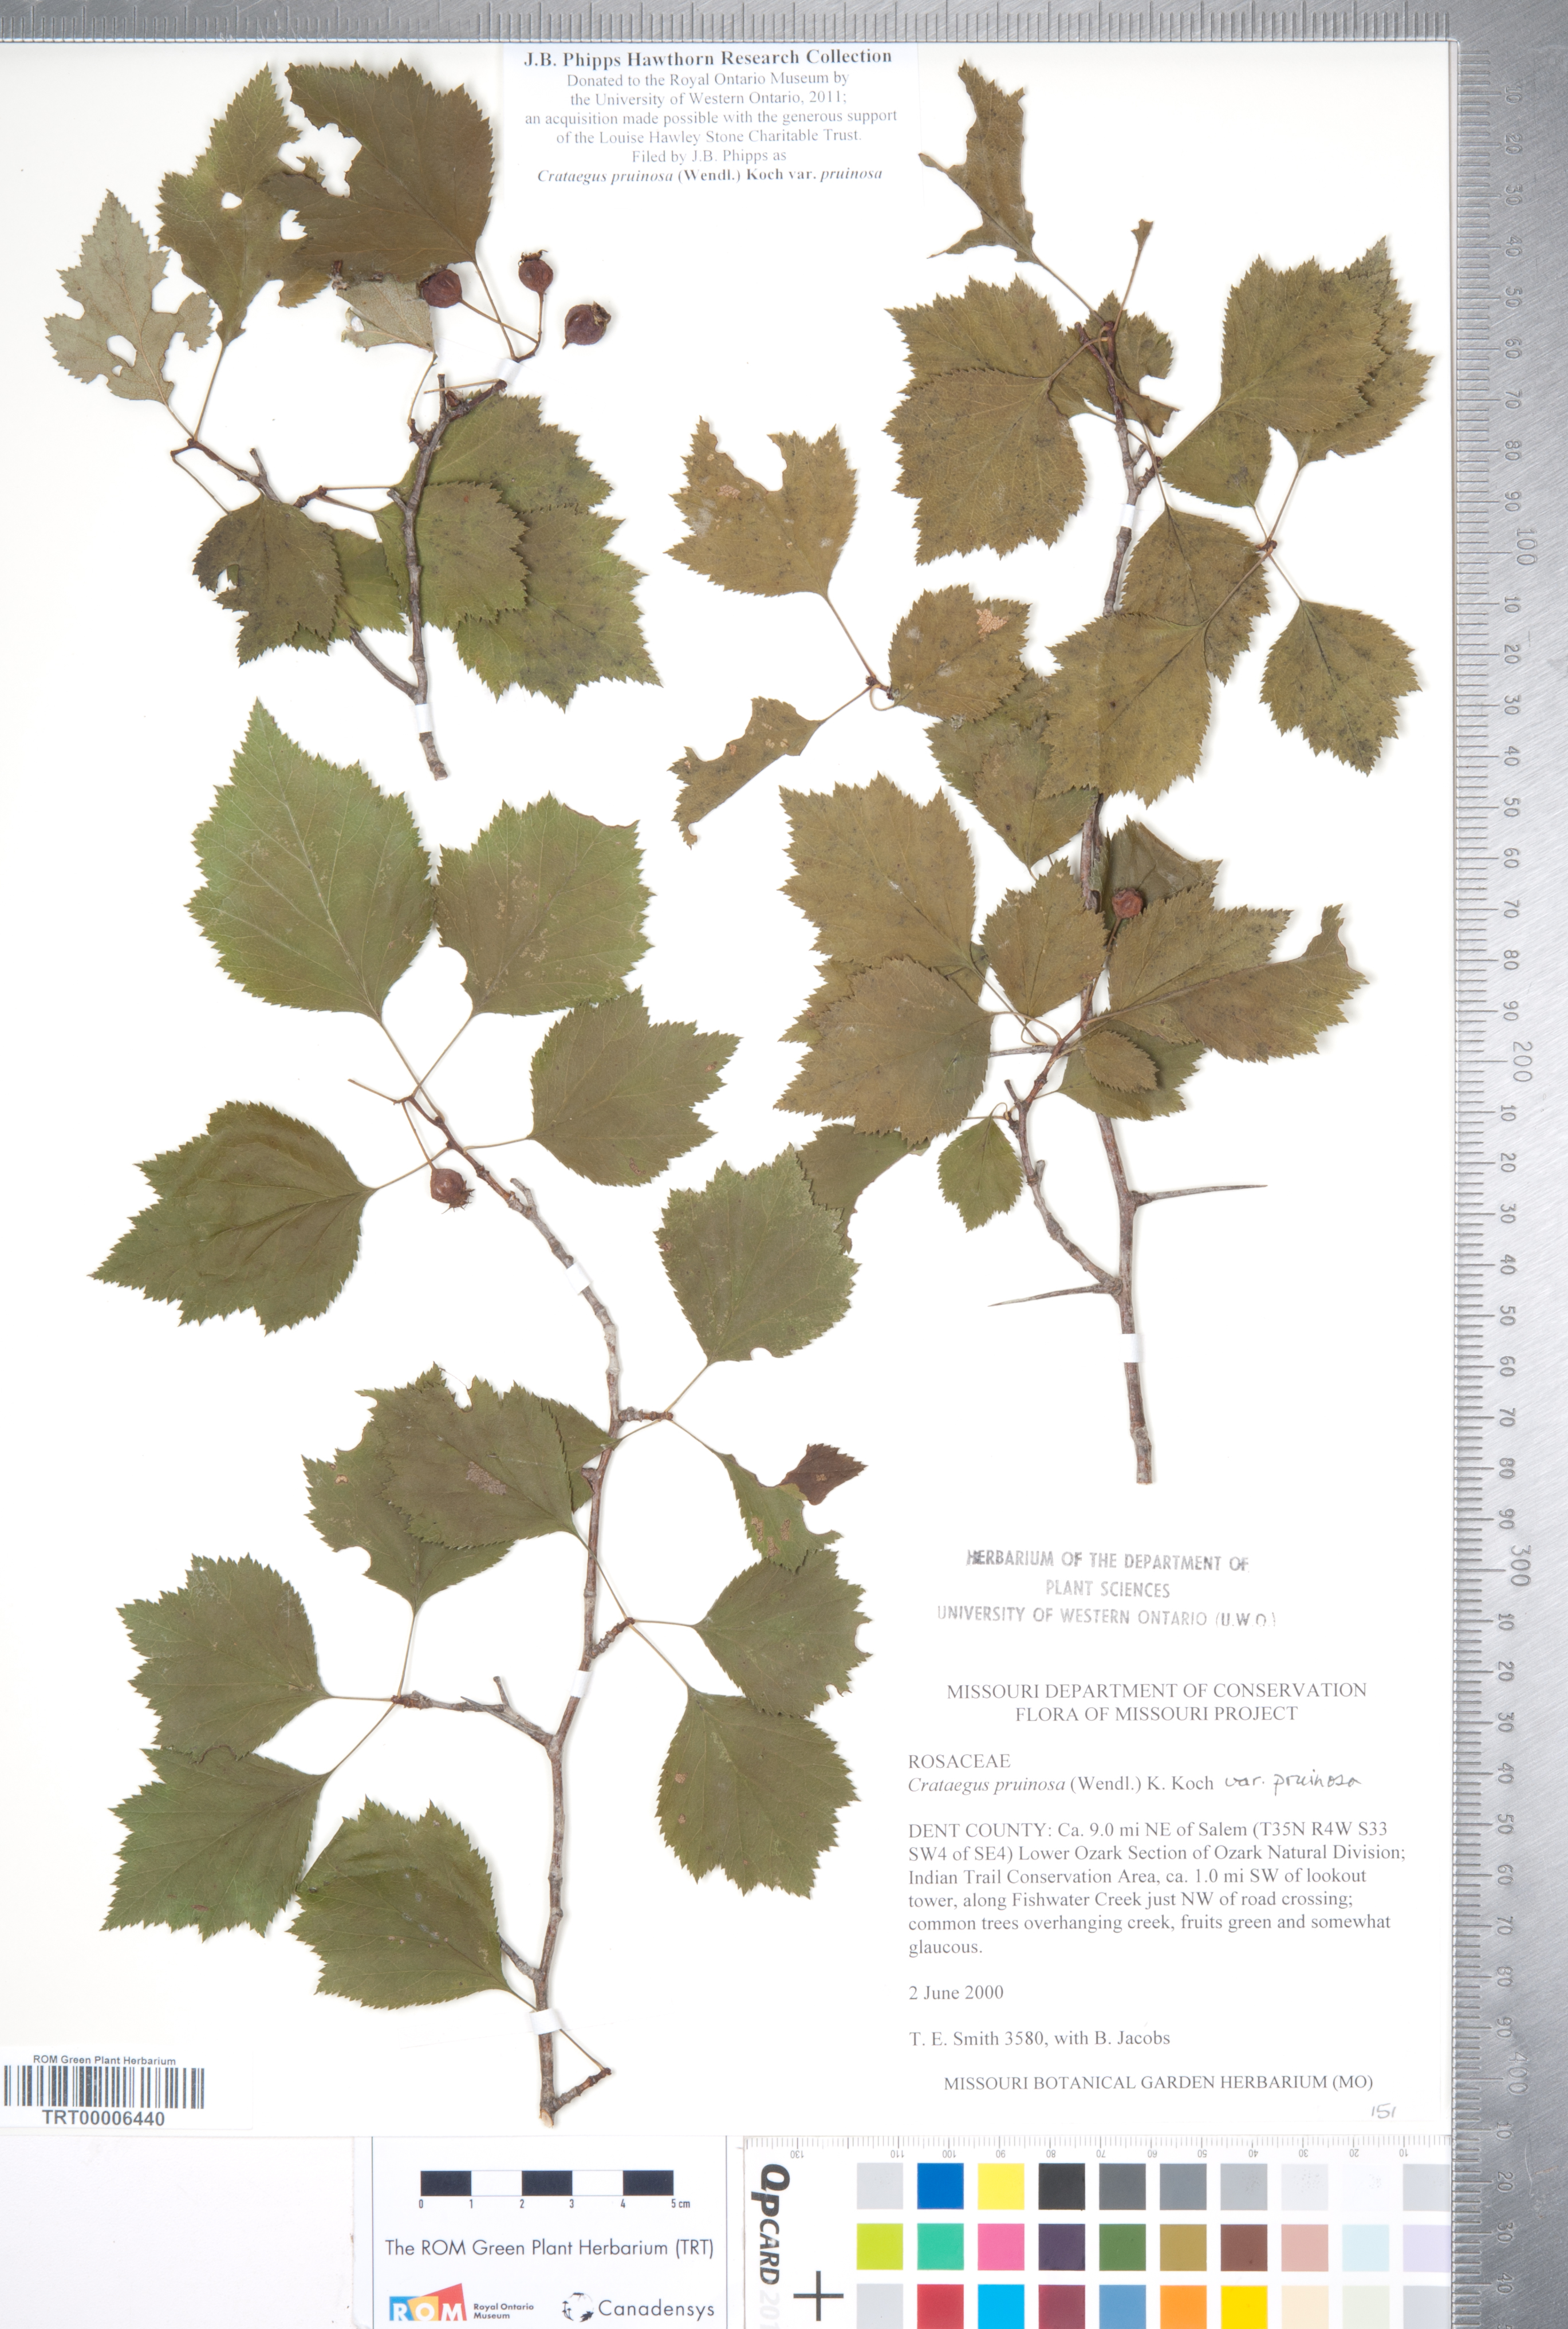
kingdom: Plantae
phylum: Tracheophyta
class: Magnoliopsida
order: Rosales
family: Rosaceae
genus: Crataegus
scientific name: Crataegus pruinosa
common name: Waxy-fruit hawthorn
